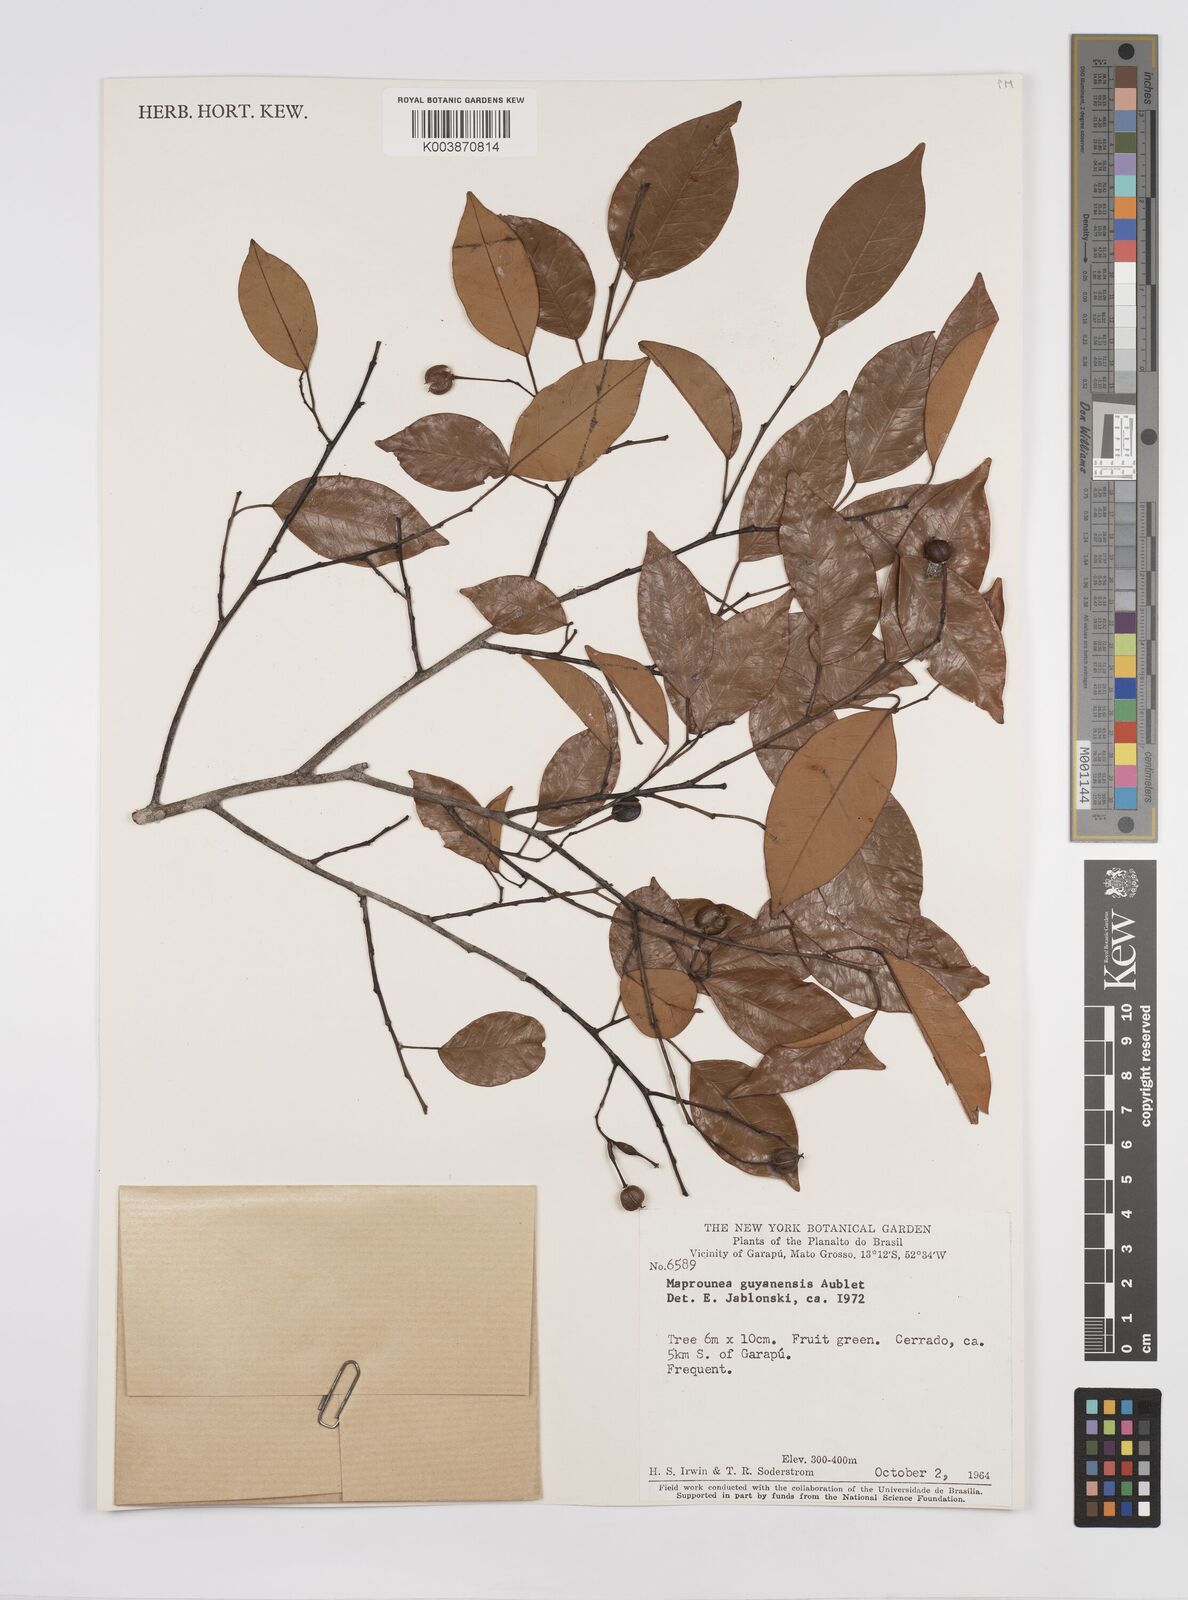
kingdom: Plantae
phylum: Tracheophyta
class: Magnoliopsida
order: Malpighiales
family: Euphorbiaceae
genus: Maprounea
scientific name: Maprounea guianensis
